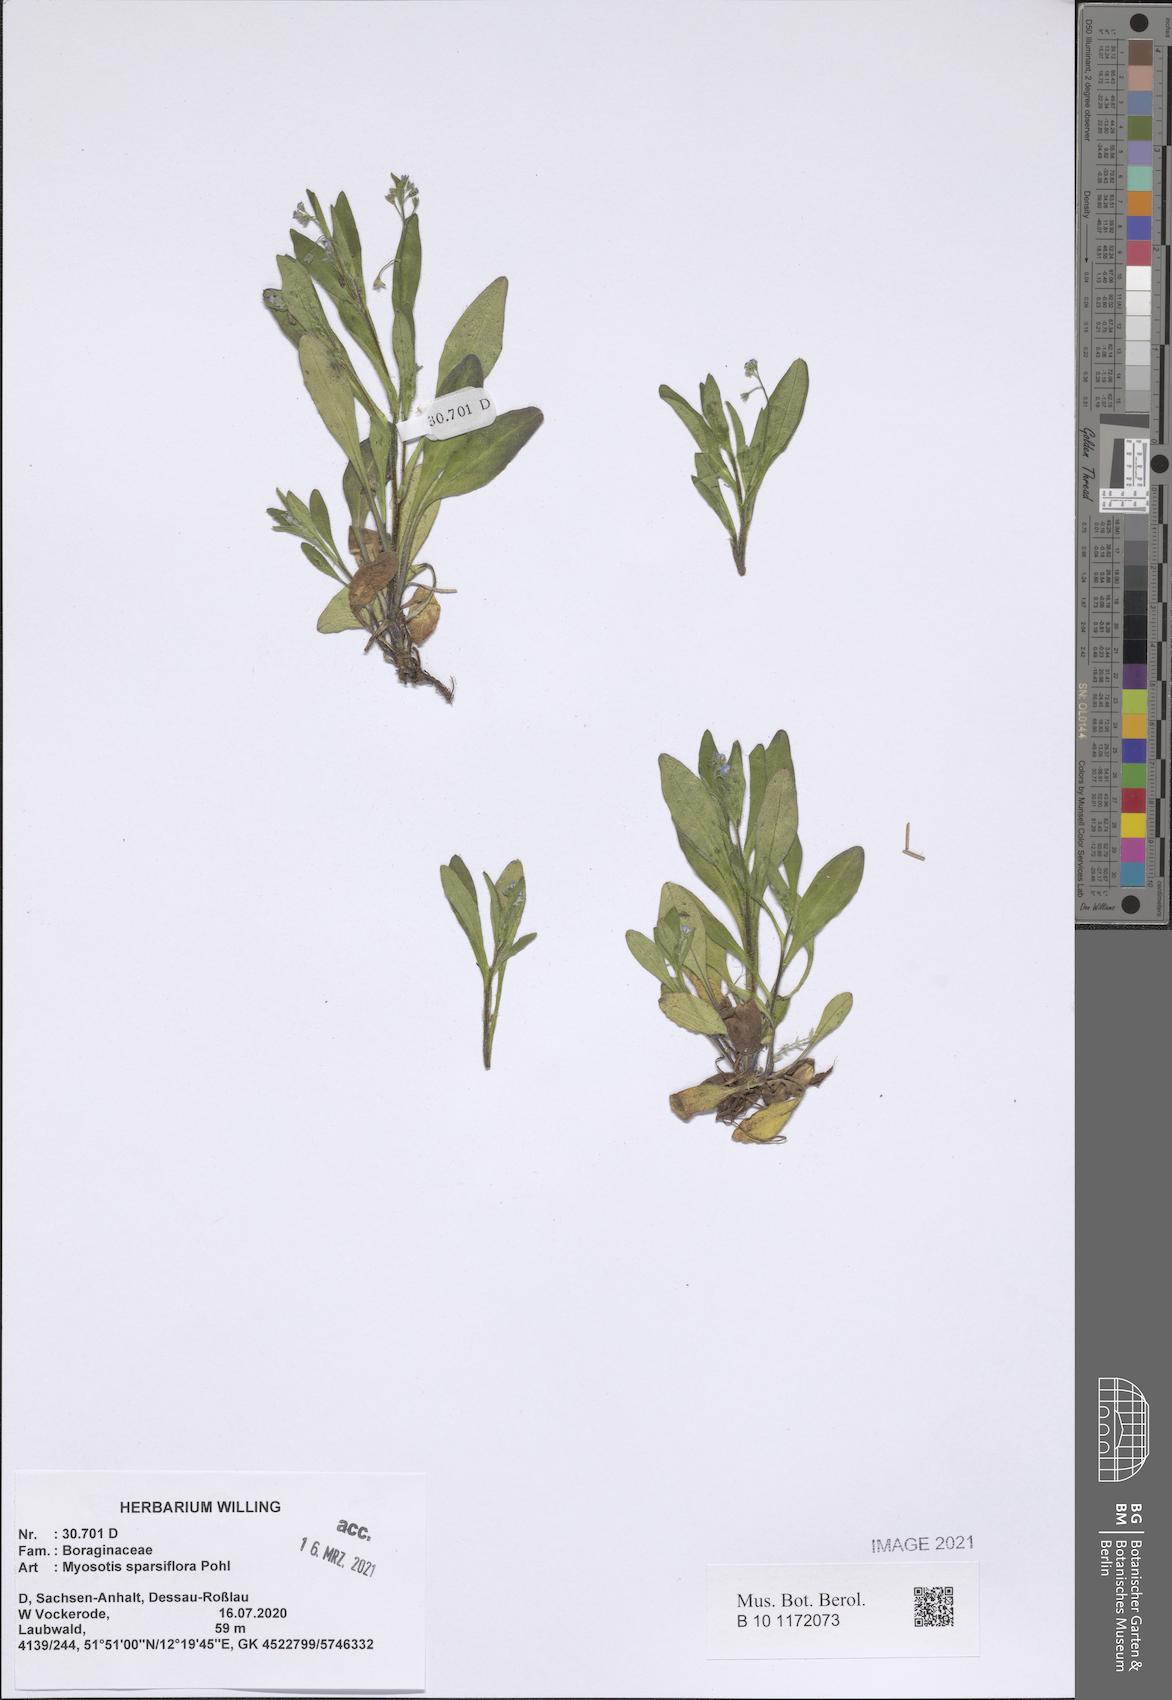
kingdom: Plantae
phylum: Tracheophyta
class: Magnoliopsida
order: Boraginales
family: Boraginaceae
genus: Myosotis
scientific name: Myosotis sparsiflora
